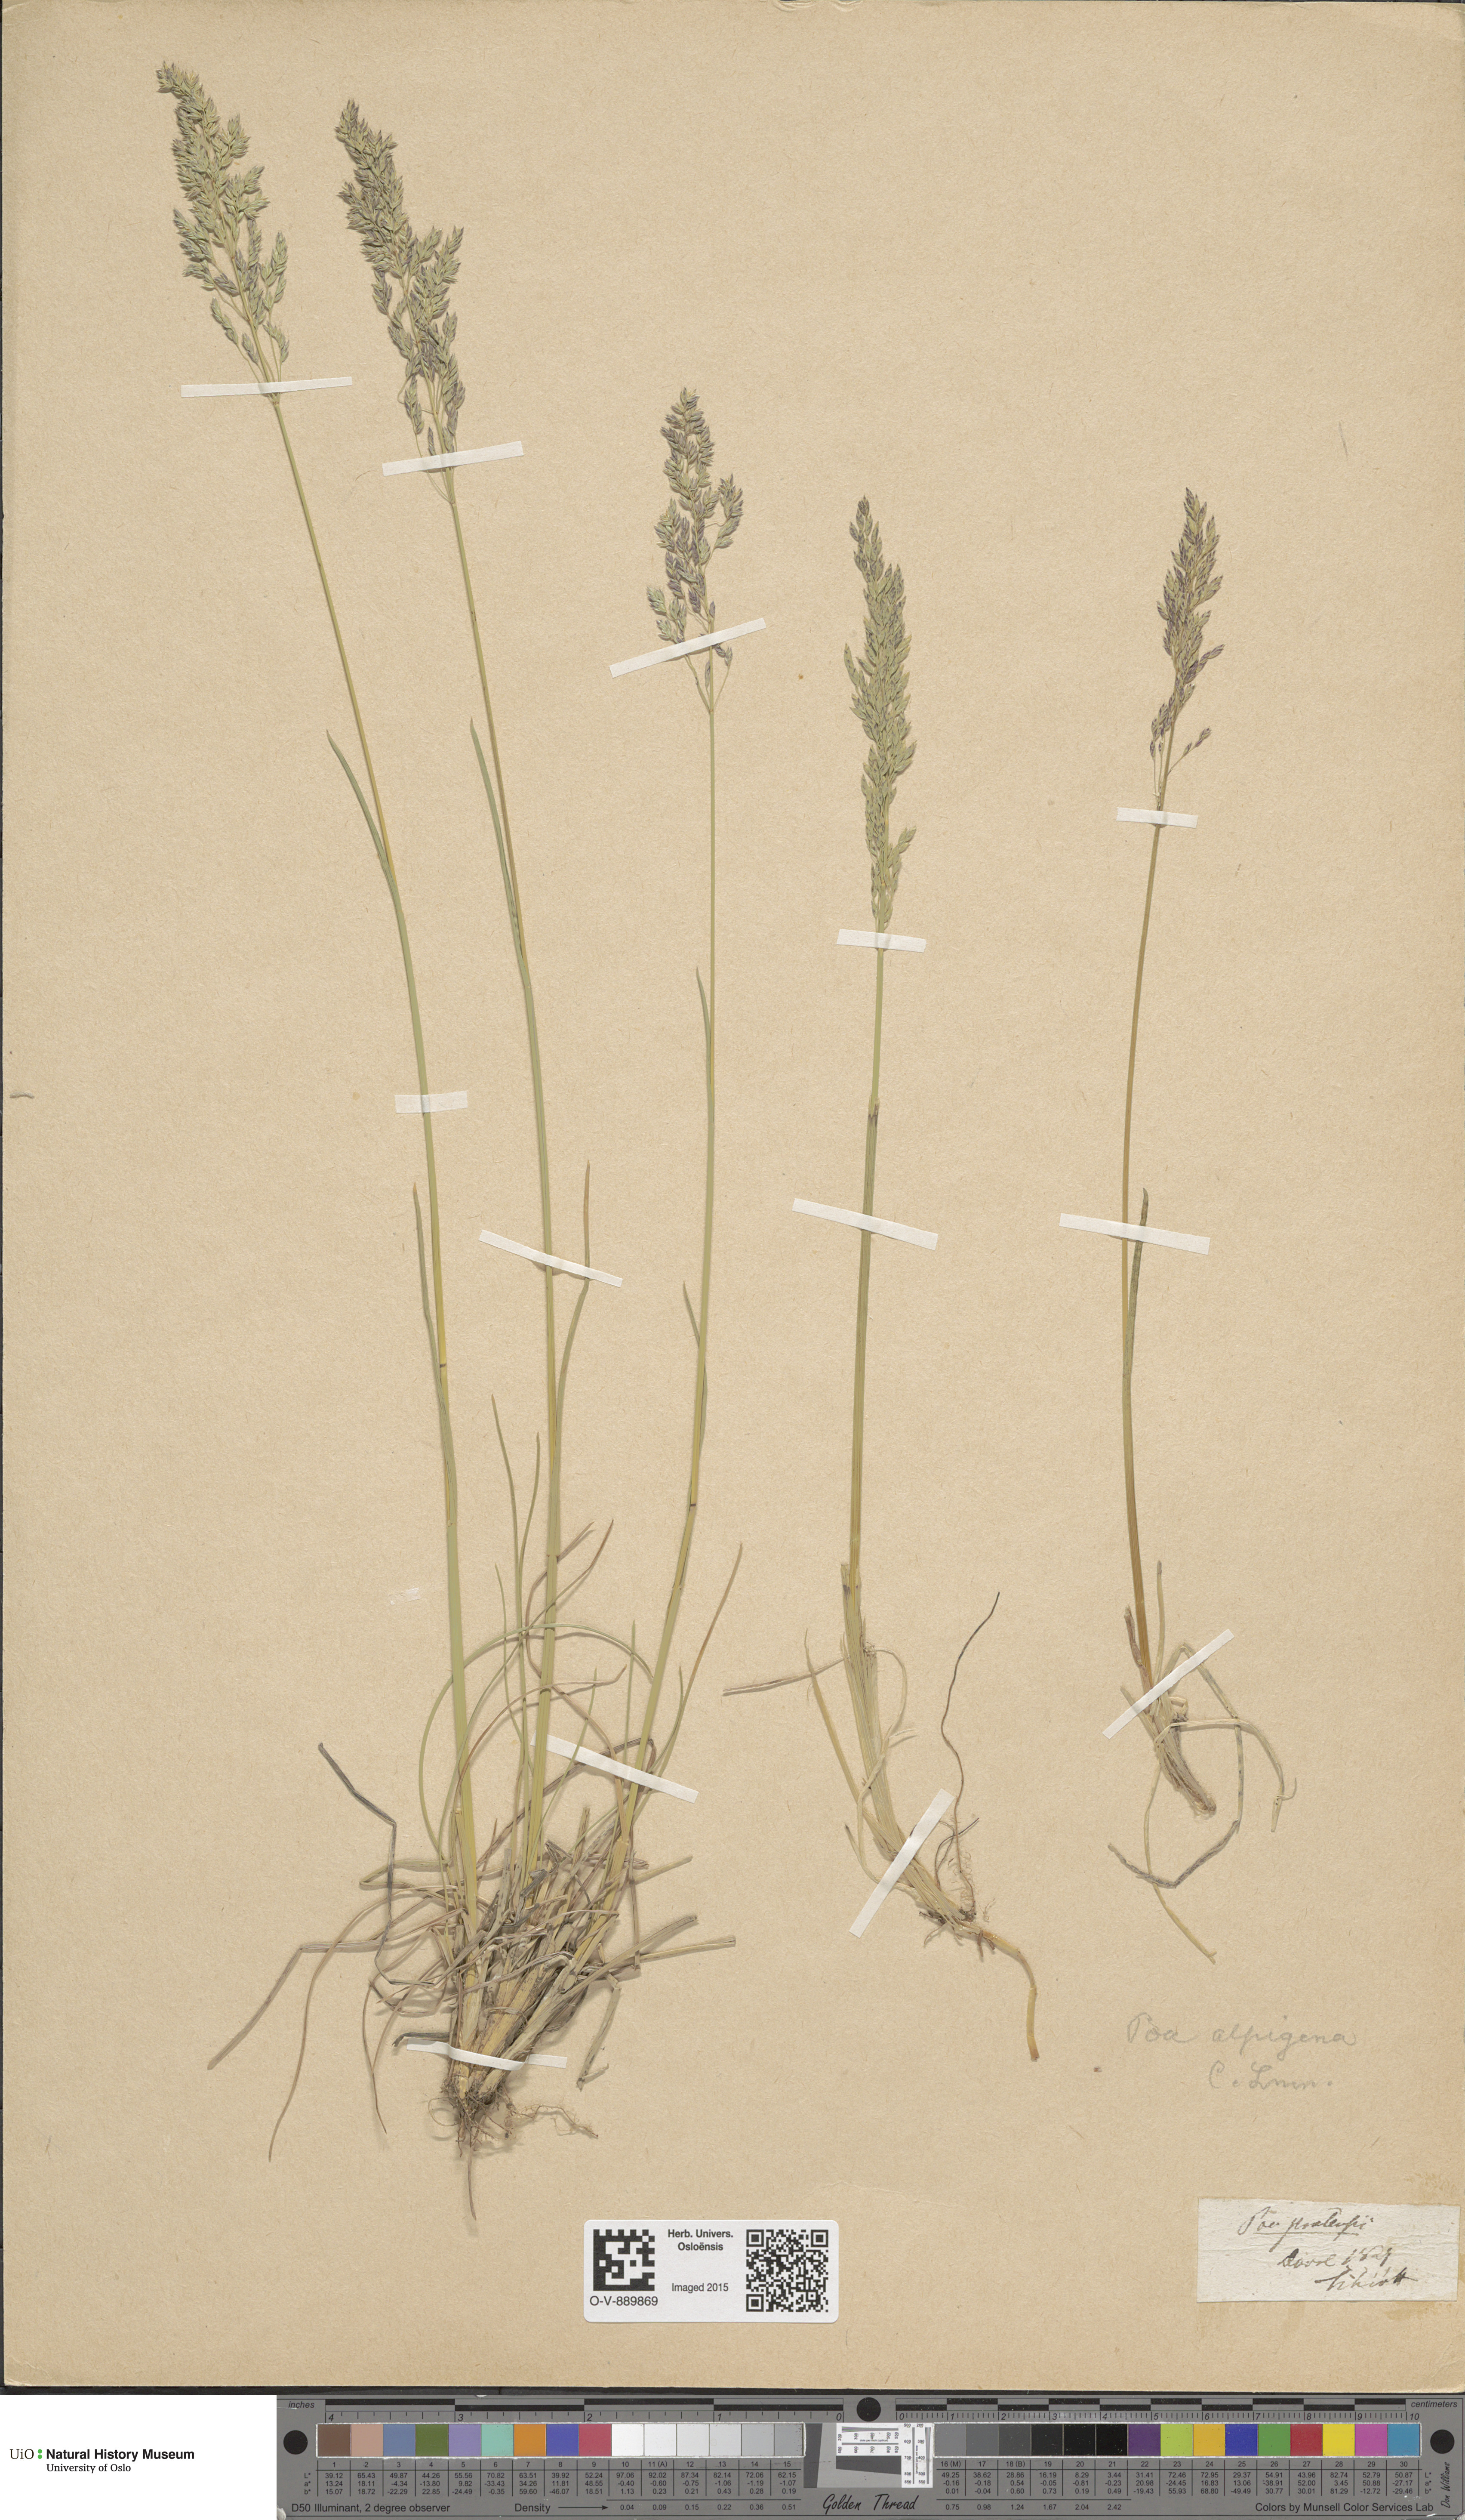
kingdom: Plantae
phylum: Tracheophyta
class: Liliopsida
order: Poales
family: Poaceae
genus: Poa
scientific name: Poa alpigena
